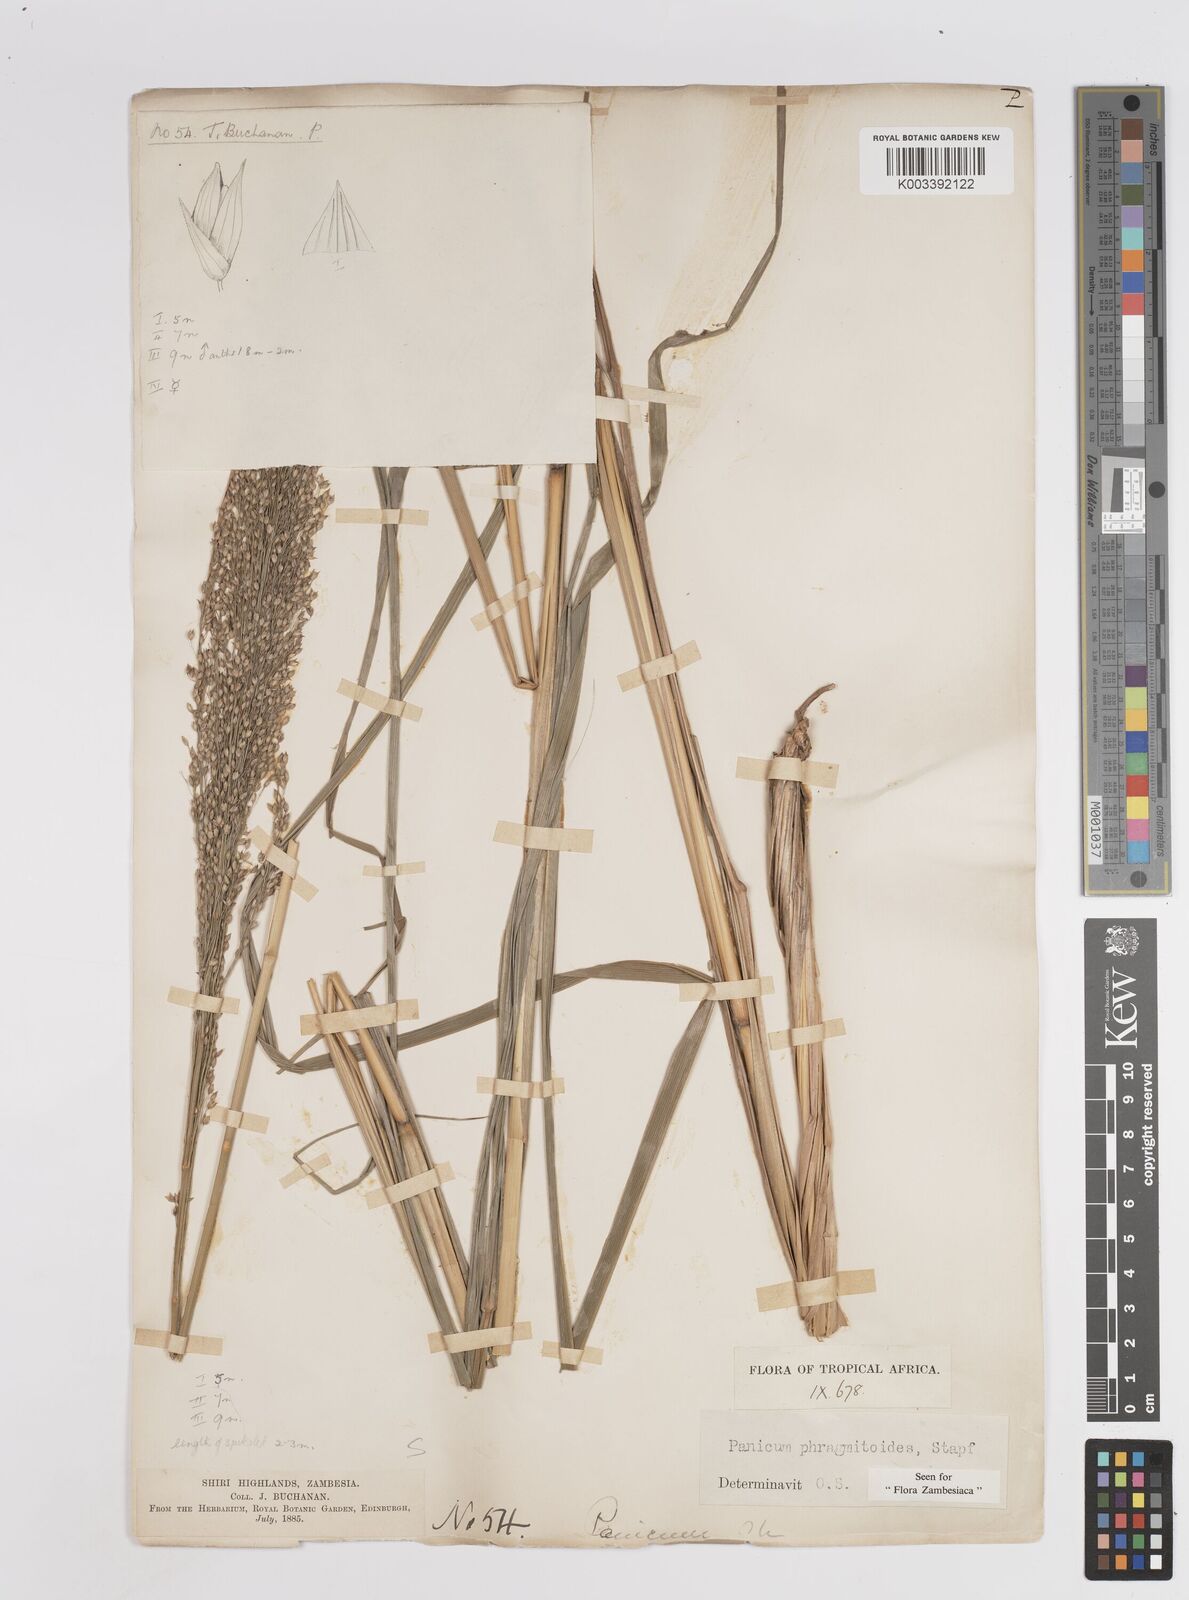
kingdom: Plantae
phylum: Tracheophyta
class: Liliopsida
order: Poales
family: Poaceae
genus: Panicum
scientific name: Panicum phragmitoides
